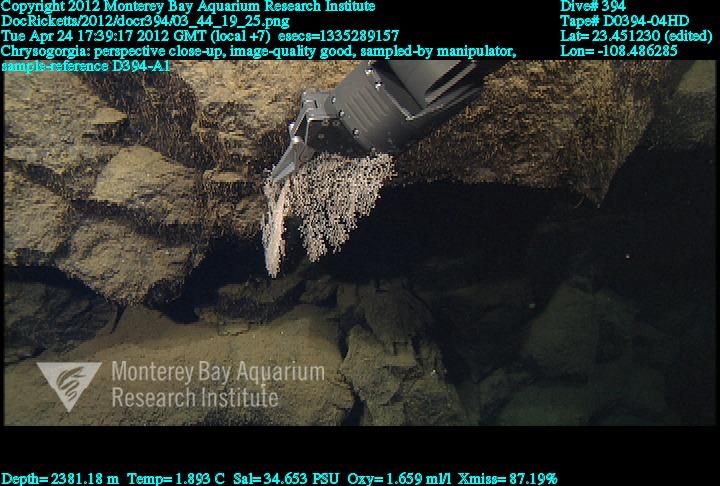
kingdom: Animalia
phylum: Cnidaria
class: Anthozoa
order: Scleralcyonacea
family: Chrysogorgiidae
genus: Chrysogorgia
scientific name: Chrysogorgia
